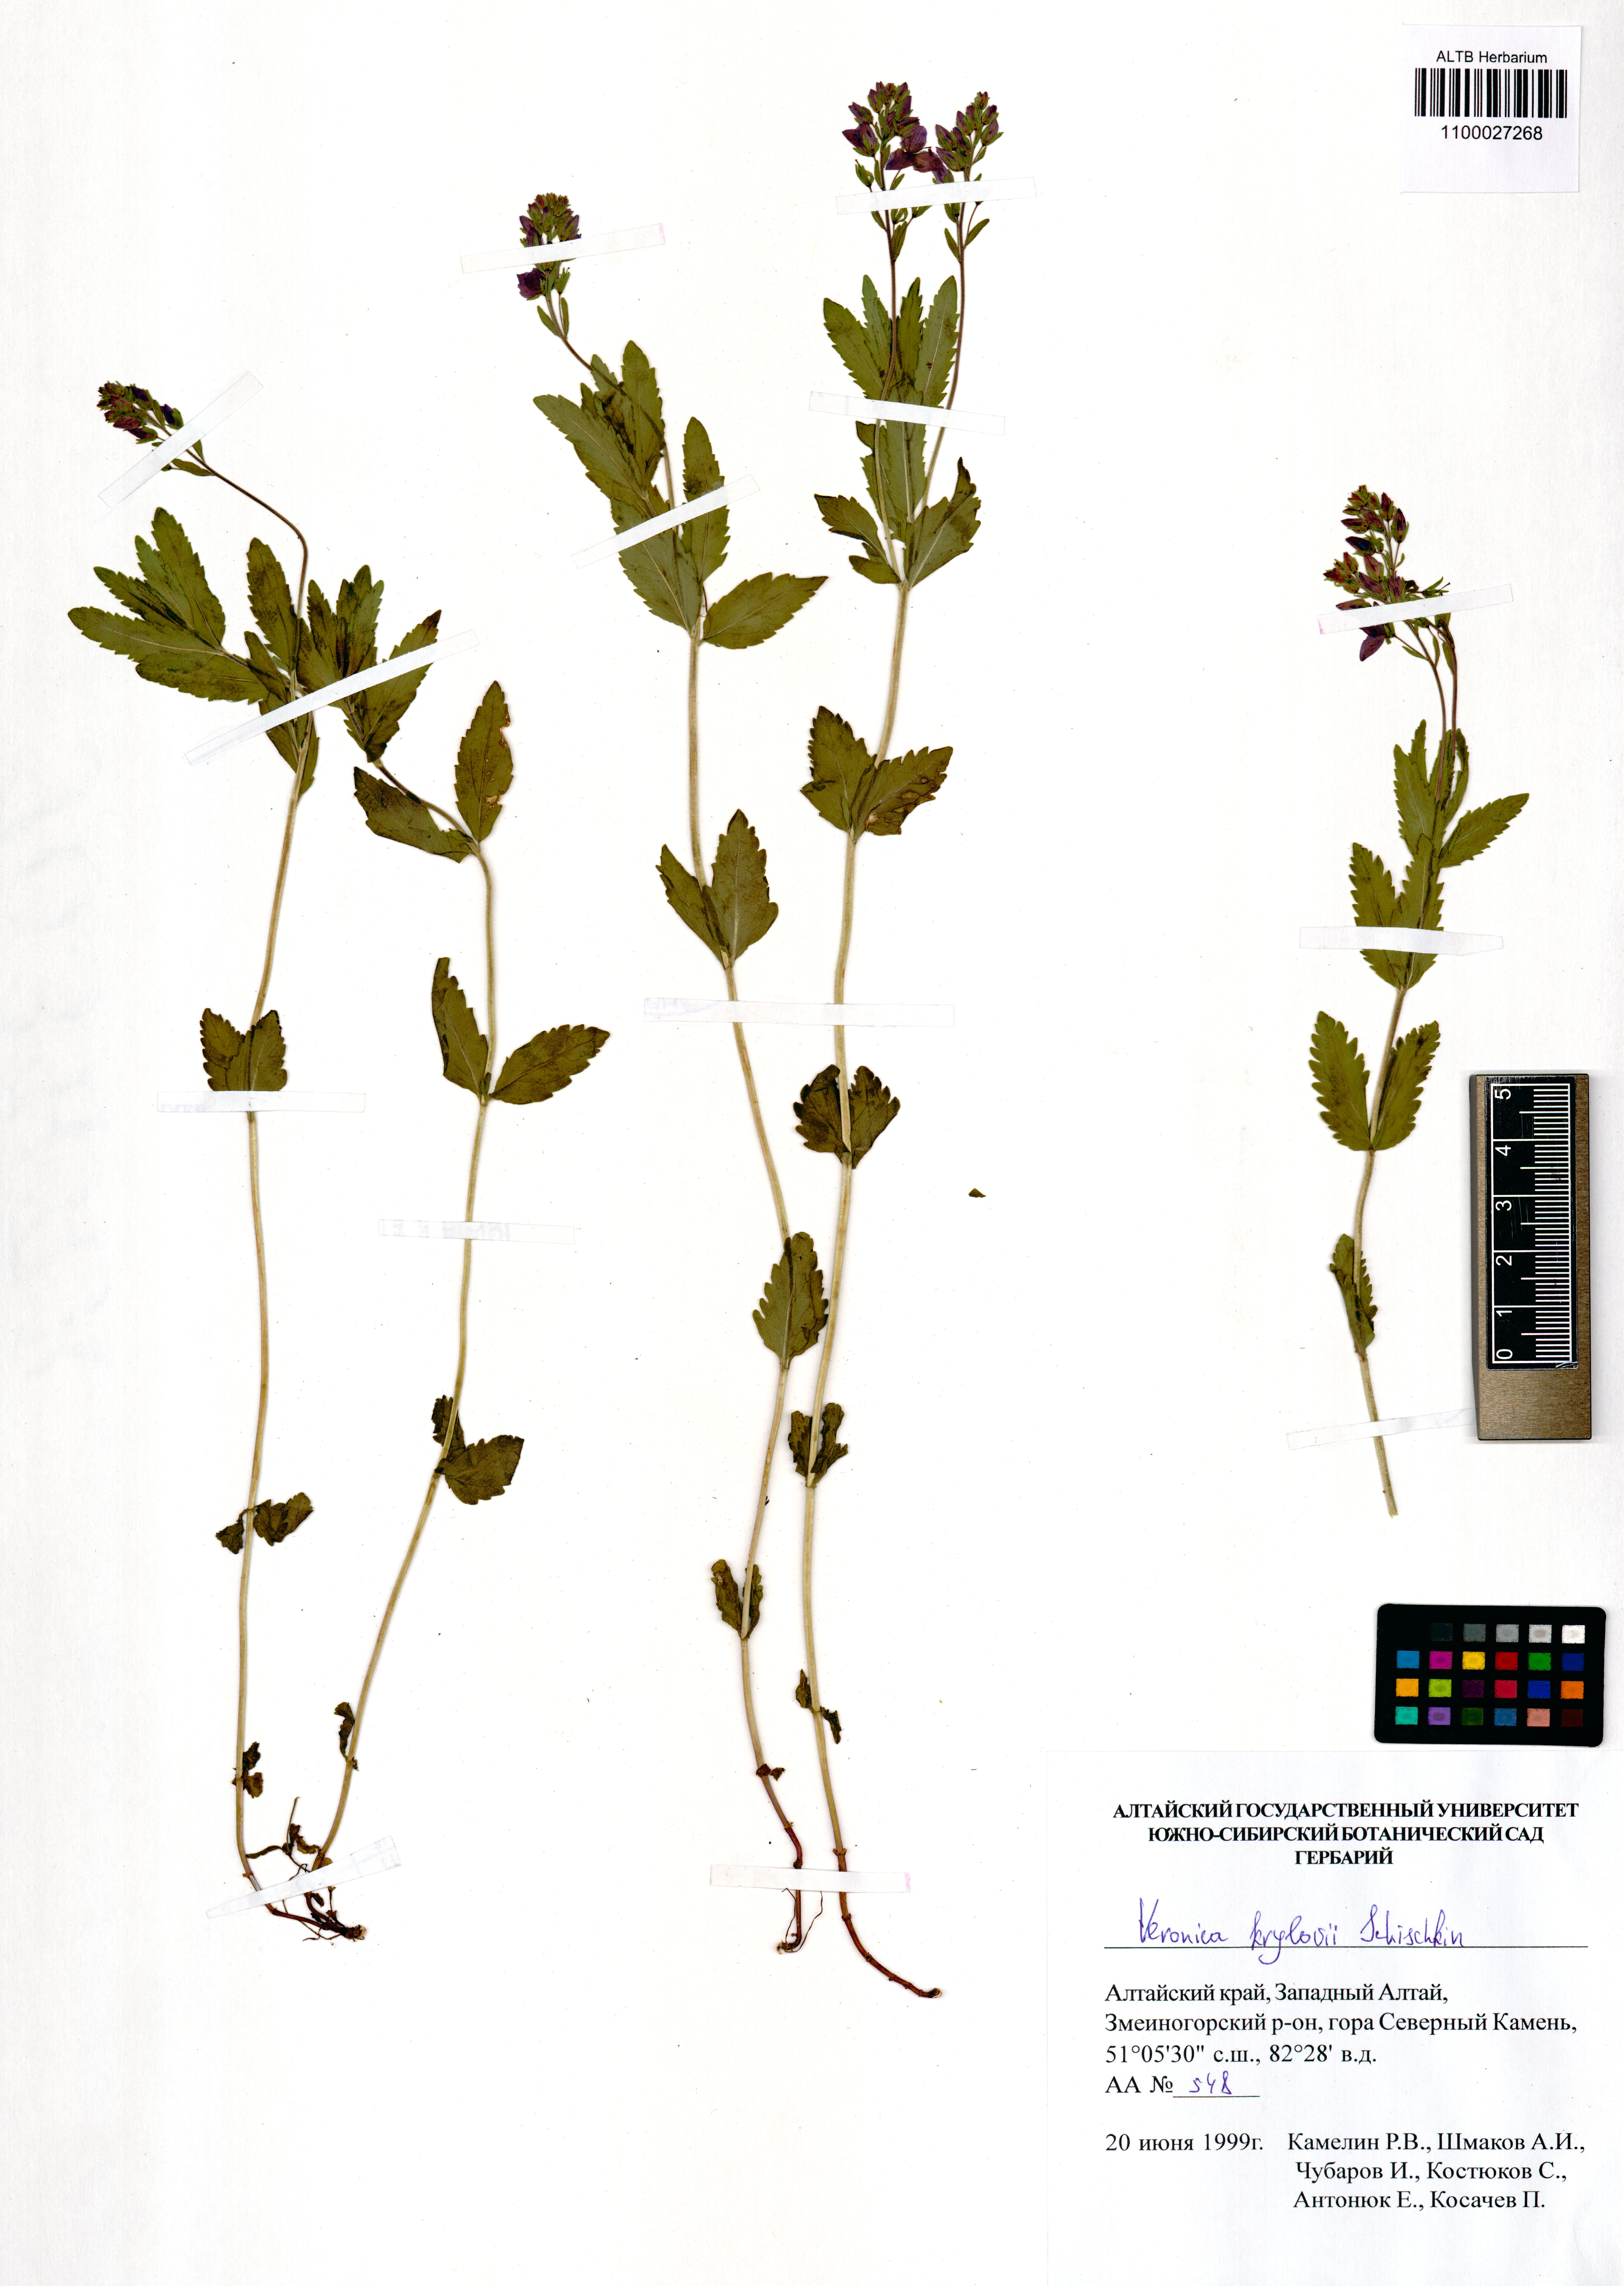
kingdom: Plantae
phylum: Tracheophyta
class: Magnoliopsida
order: Lamiales
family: Plantaginaceae
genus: Veronica
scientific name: Veronica krylovii
